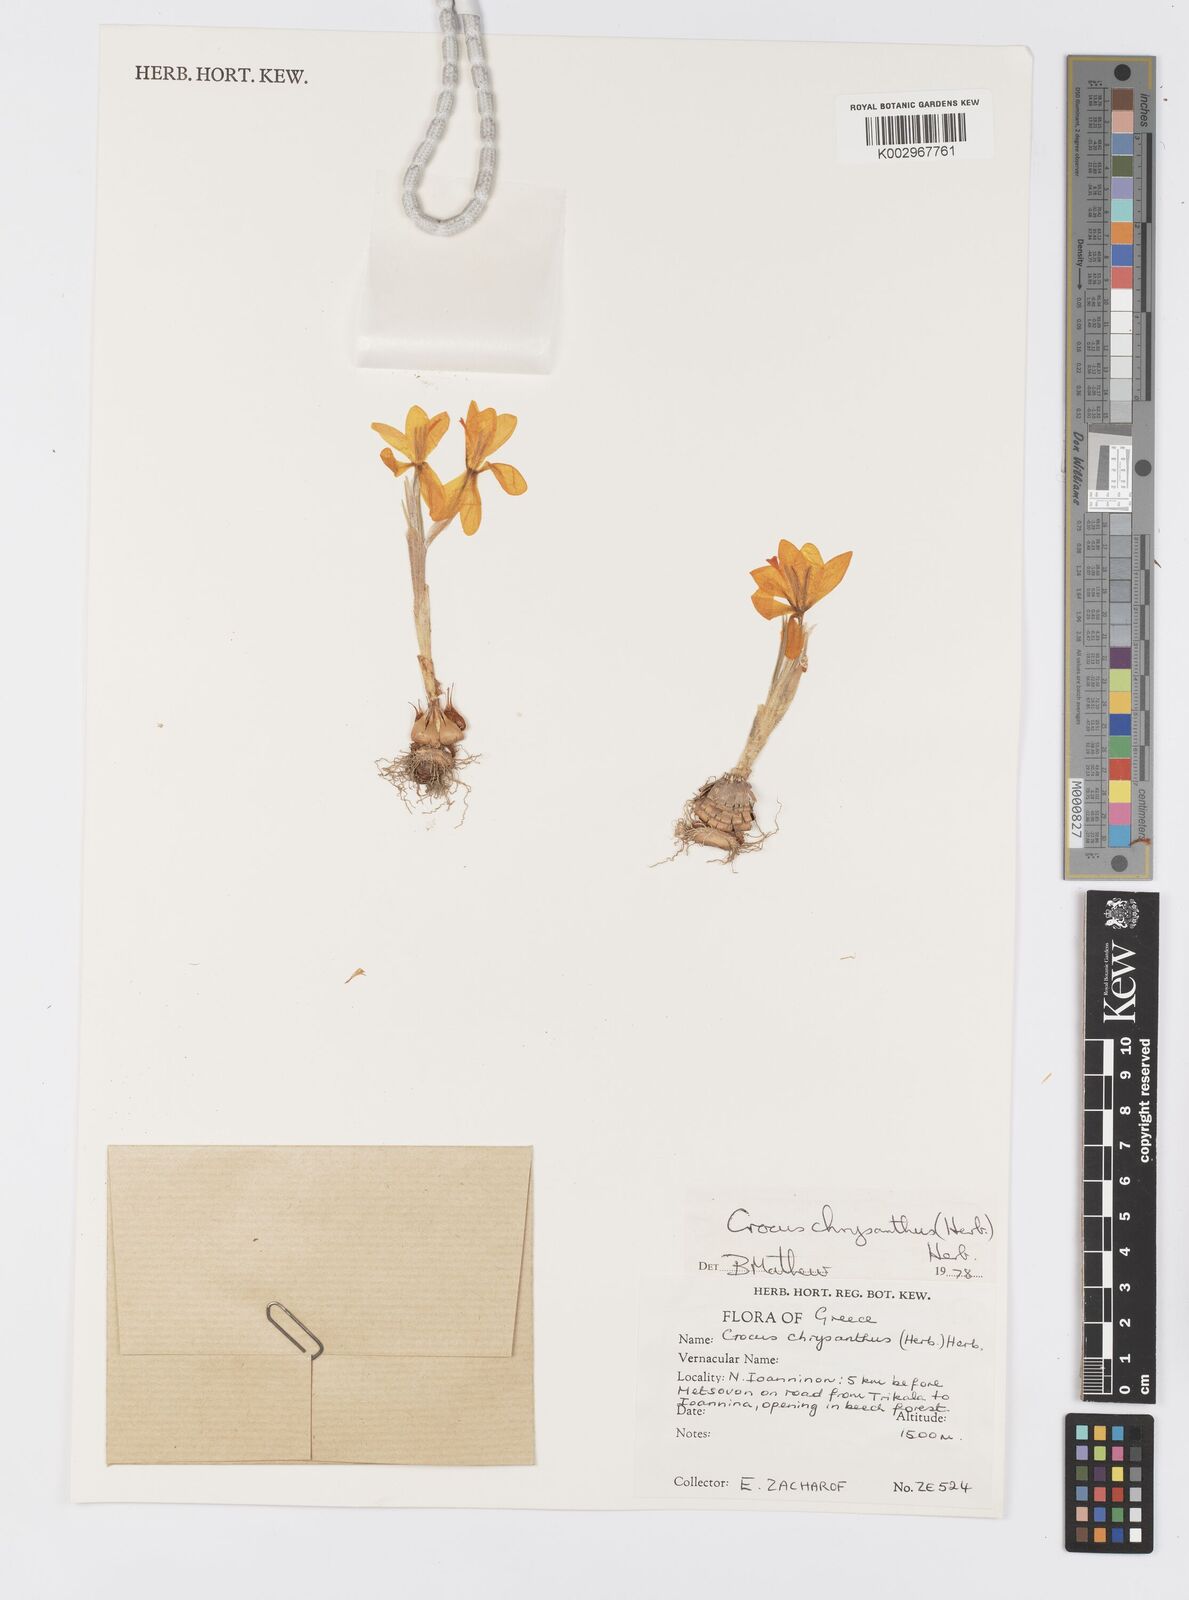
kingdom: Plantae
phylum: Tracheophyta
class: Liliopsida
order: Asparagales
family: Iridaceae
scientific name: Iridaceae
